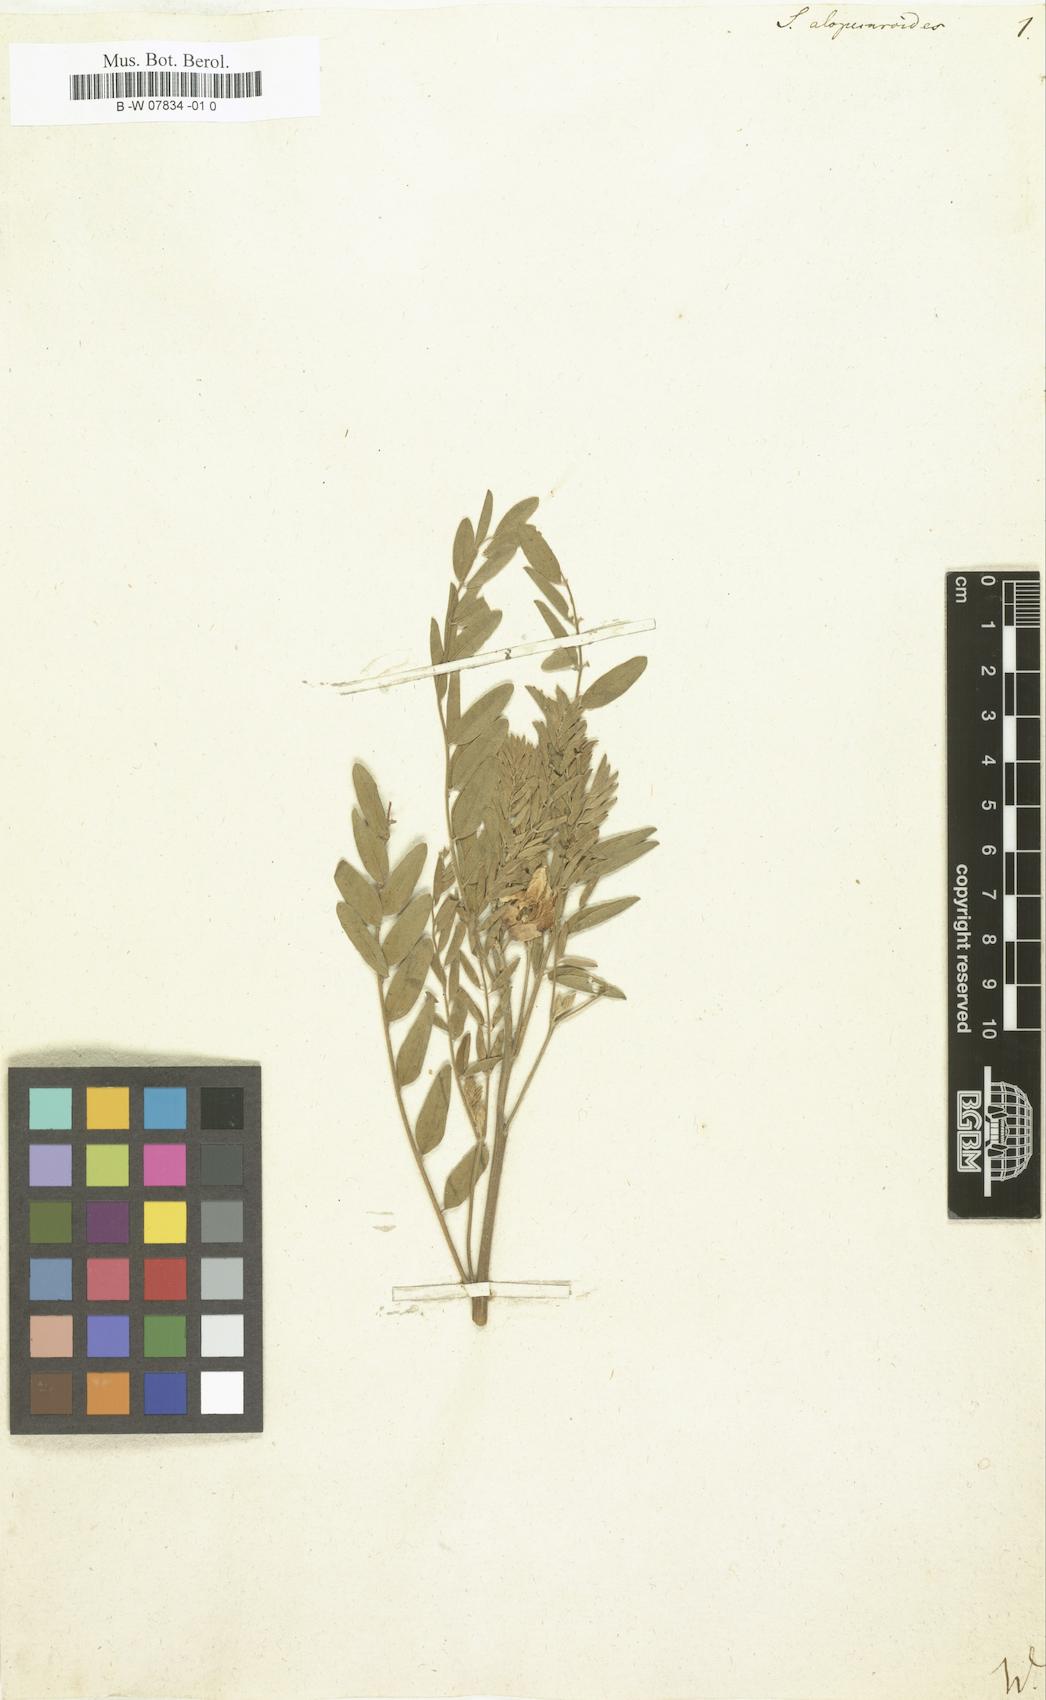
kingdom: Plantae
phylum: Tracheophyta
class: Magnoliopsida
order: Fabales
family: Fabaceae
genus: Sophora
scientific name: Sophora alopecuroides
